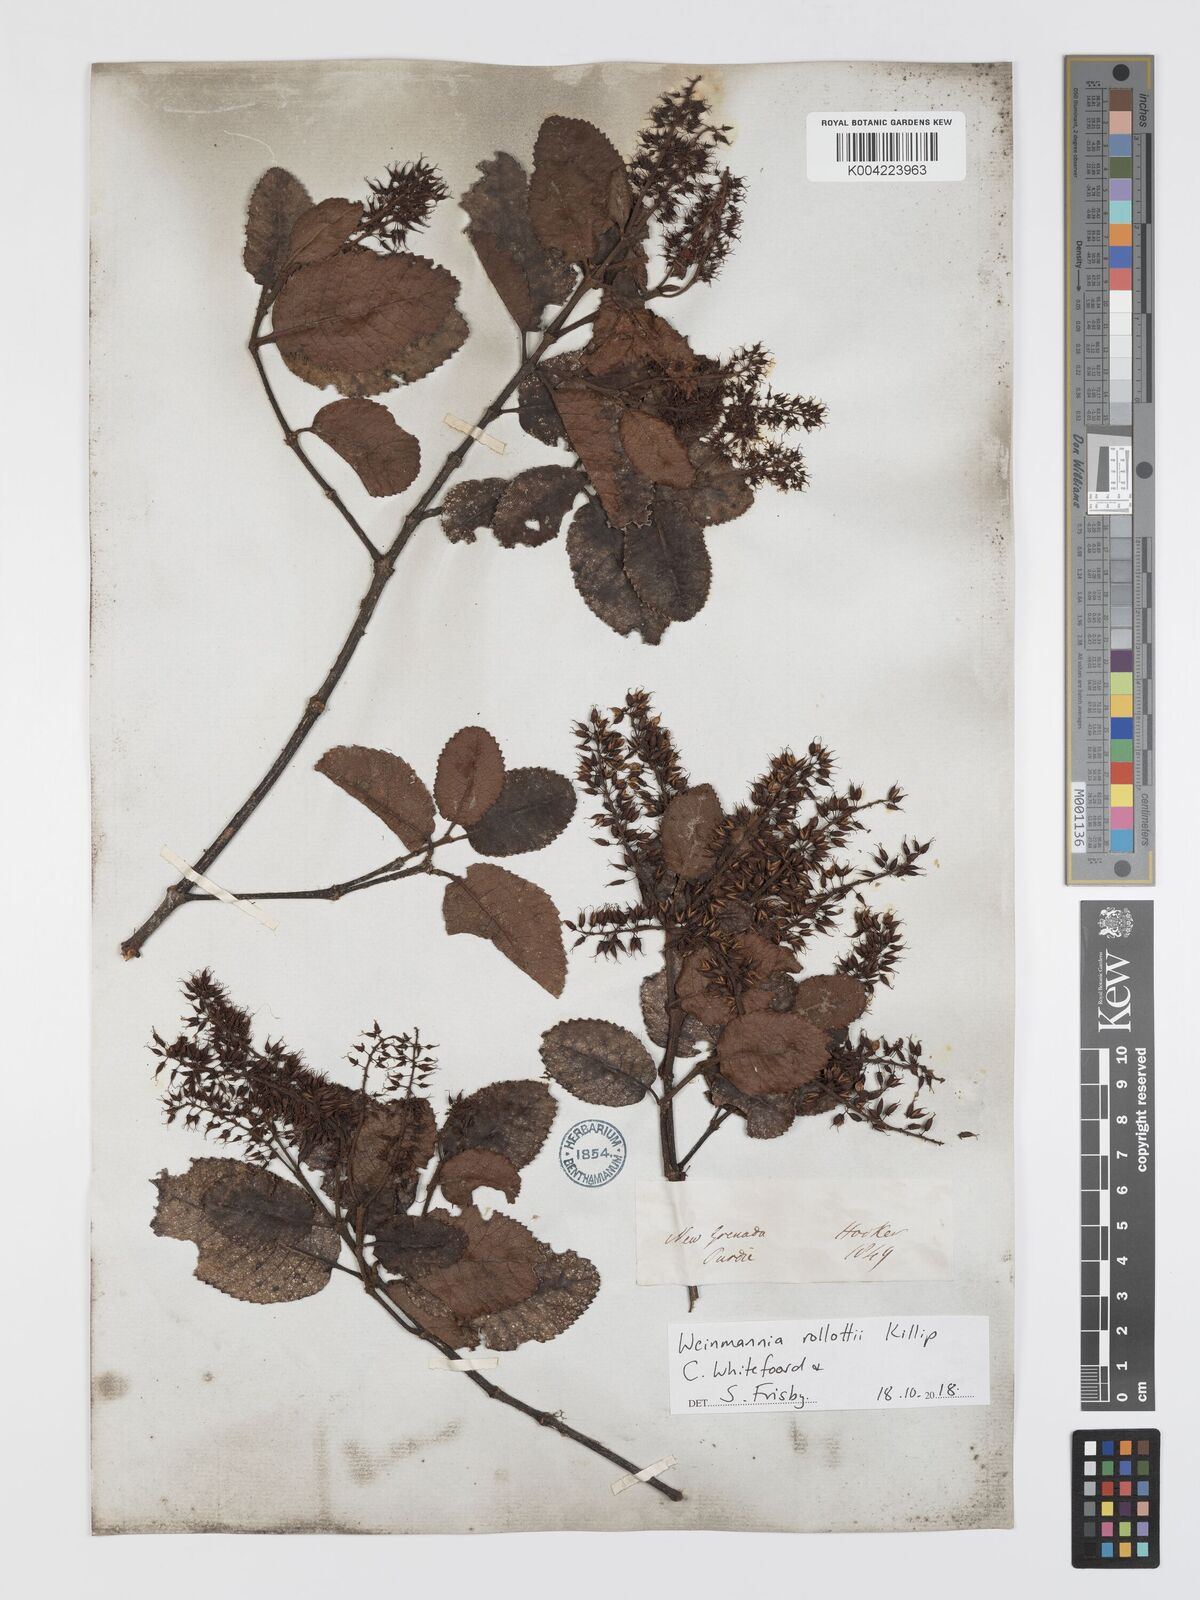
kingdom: Plantae
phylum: Tracheophyta
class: Magnoliopsida
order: Oxalidales
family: Cunoniaceae
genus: Weinmannia
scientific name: Weinmannia rollottii
